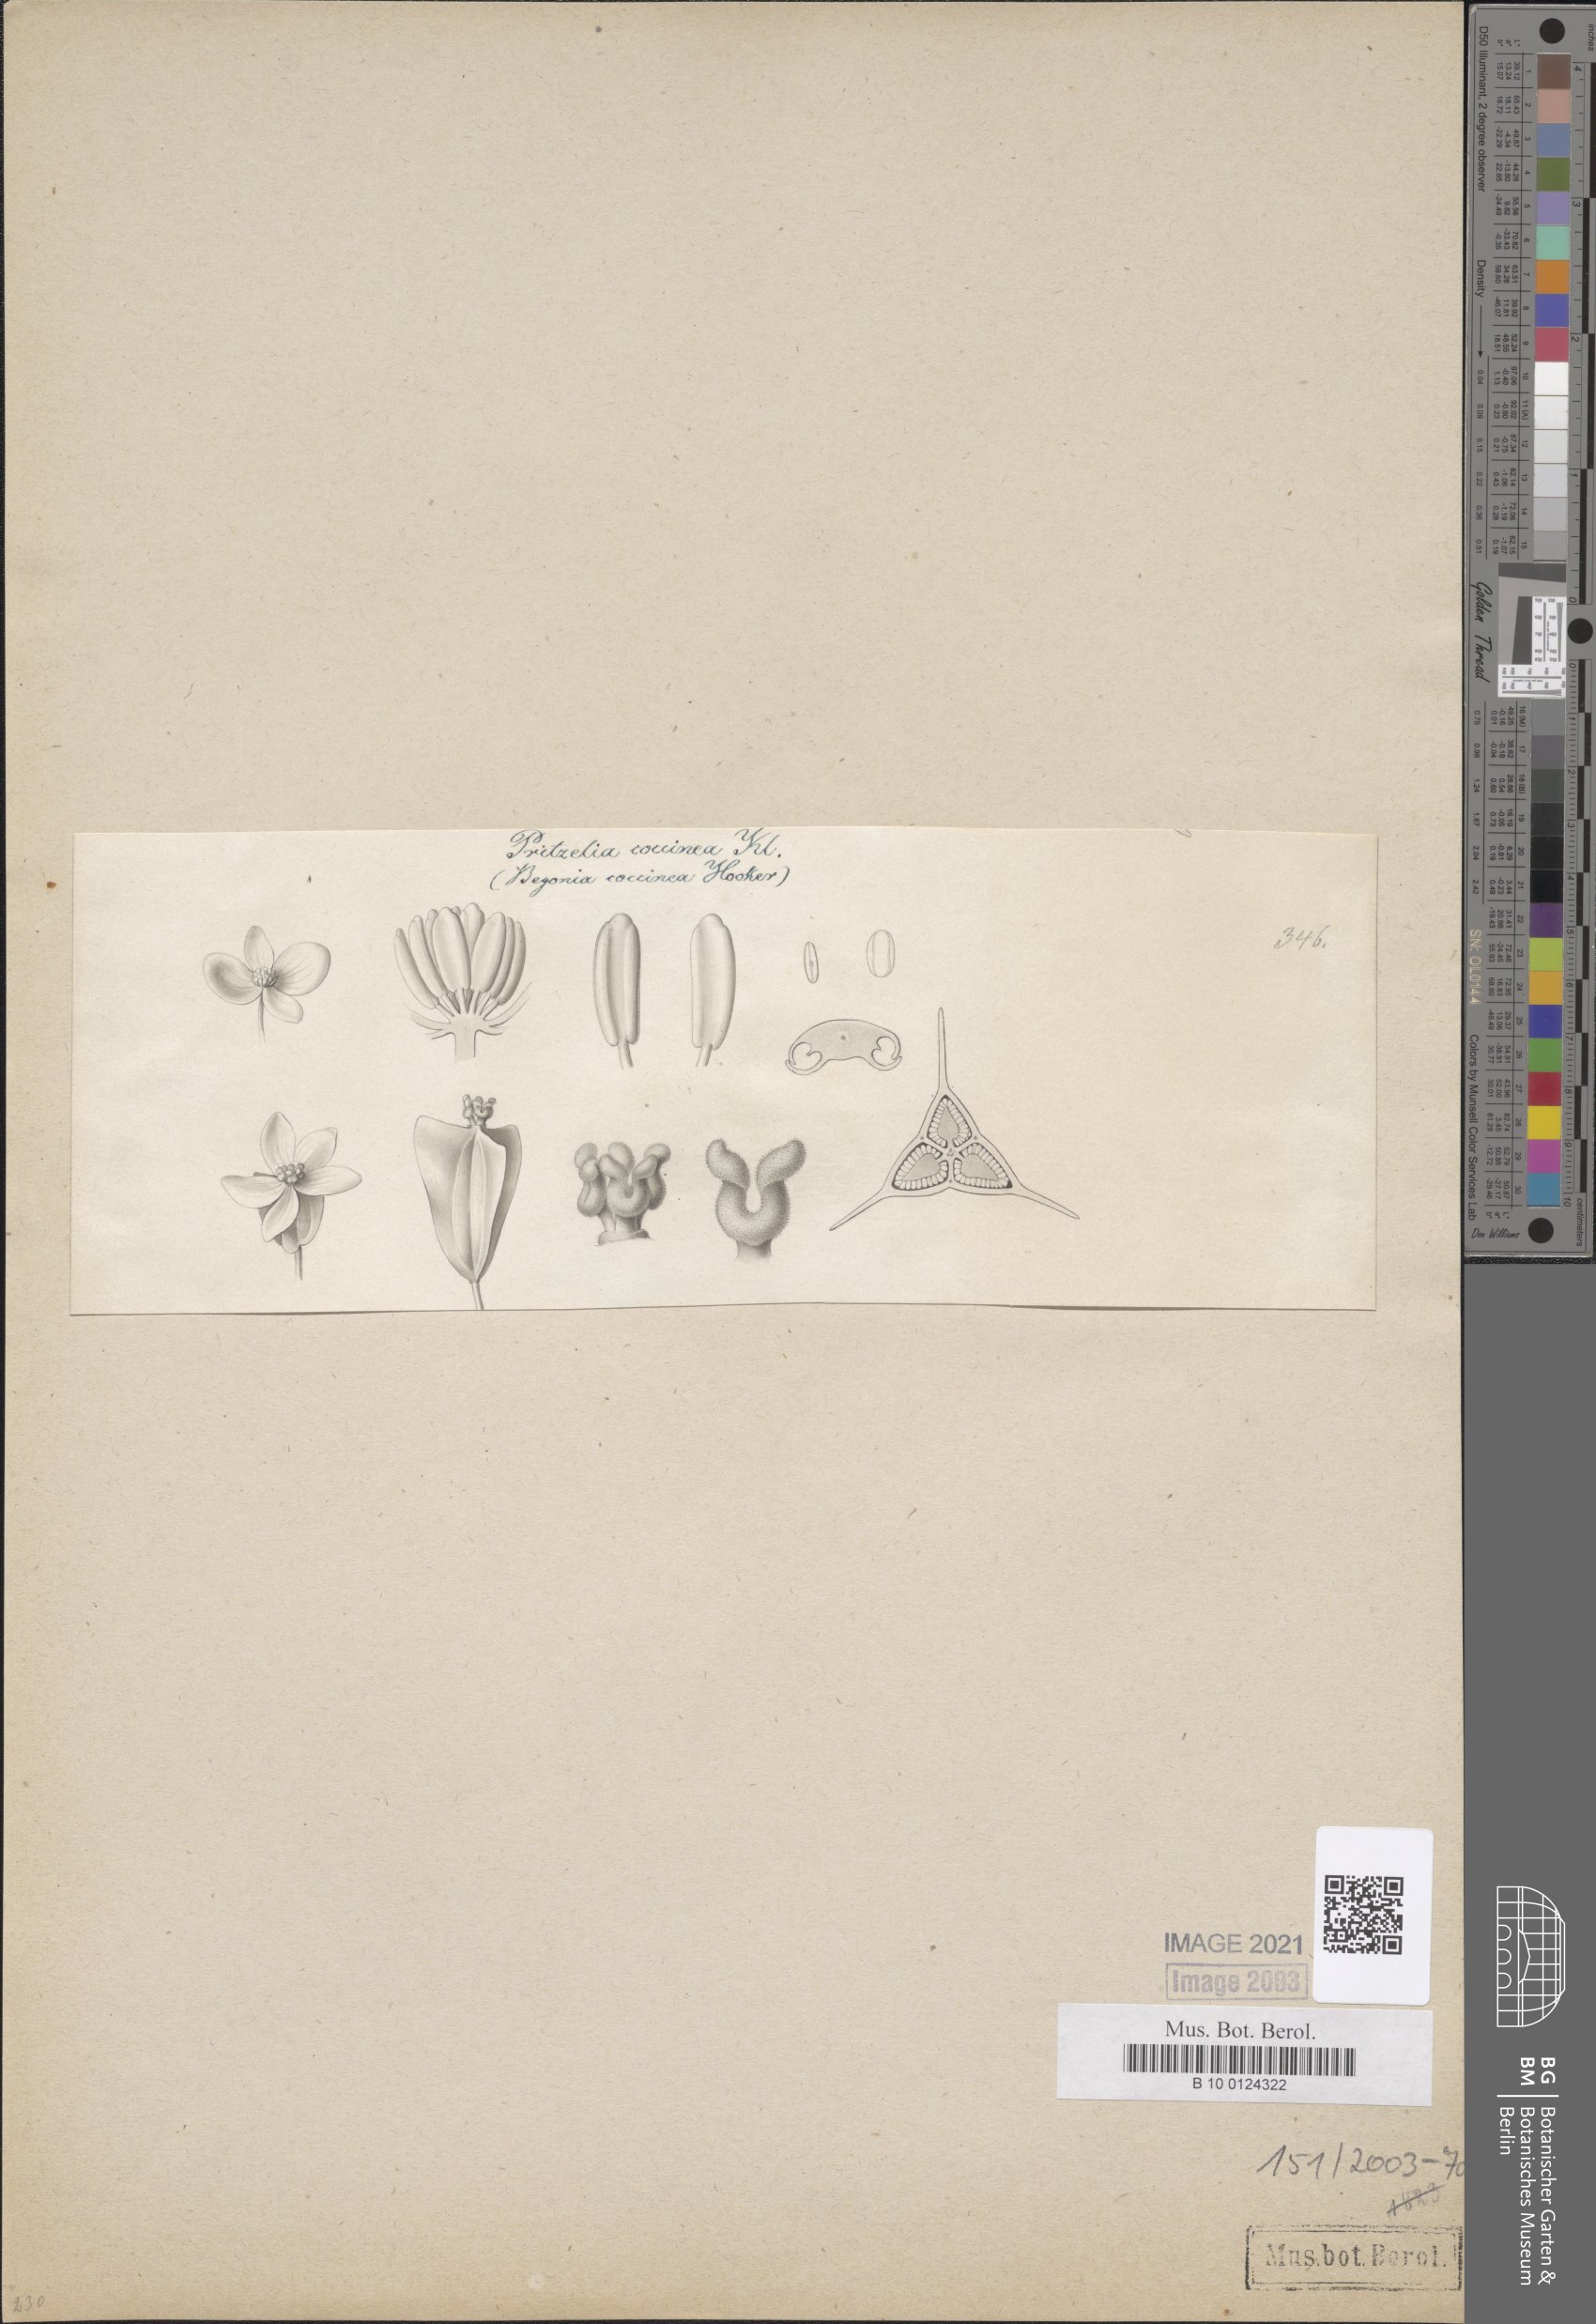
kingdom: Plantae
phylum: Tracheophyta
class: Magnoliopsida
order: Cucurbitales
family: Begoniaceae
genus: Begonia
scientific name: Begonia coccinea
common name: Angel-wing begonia
